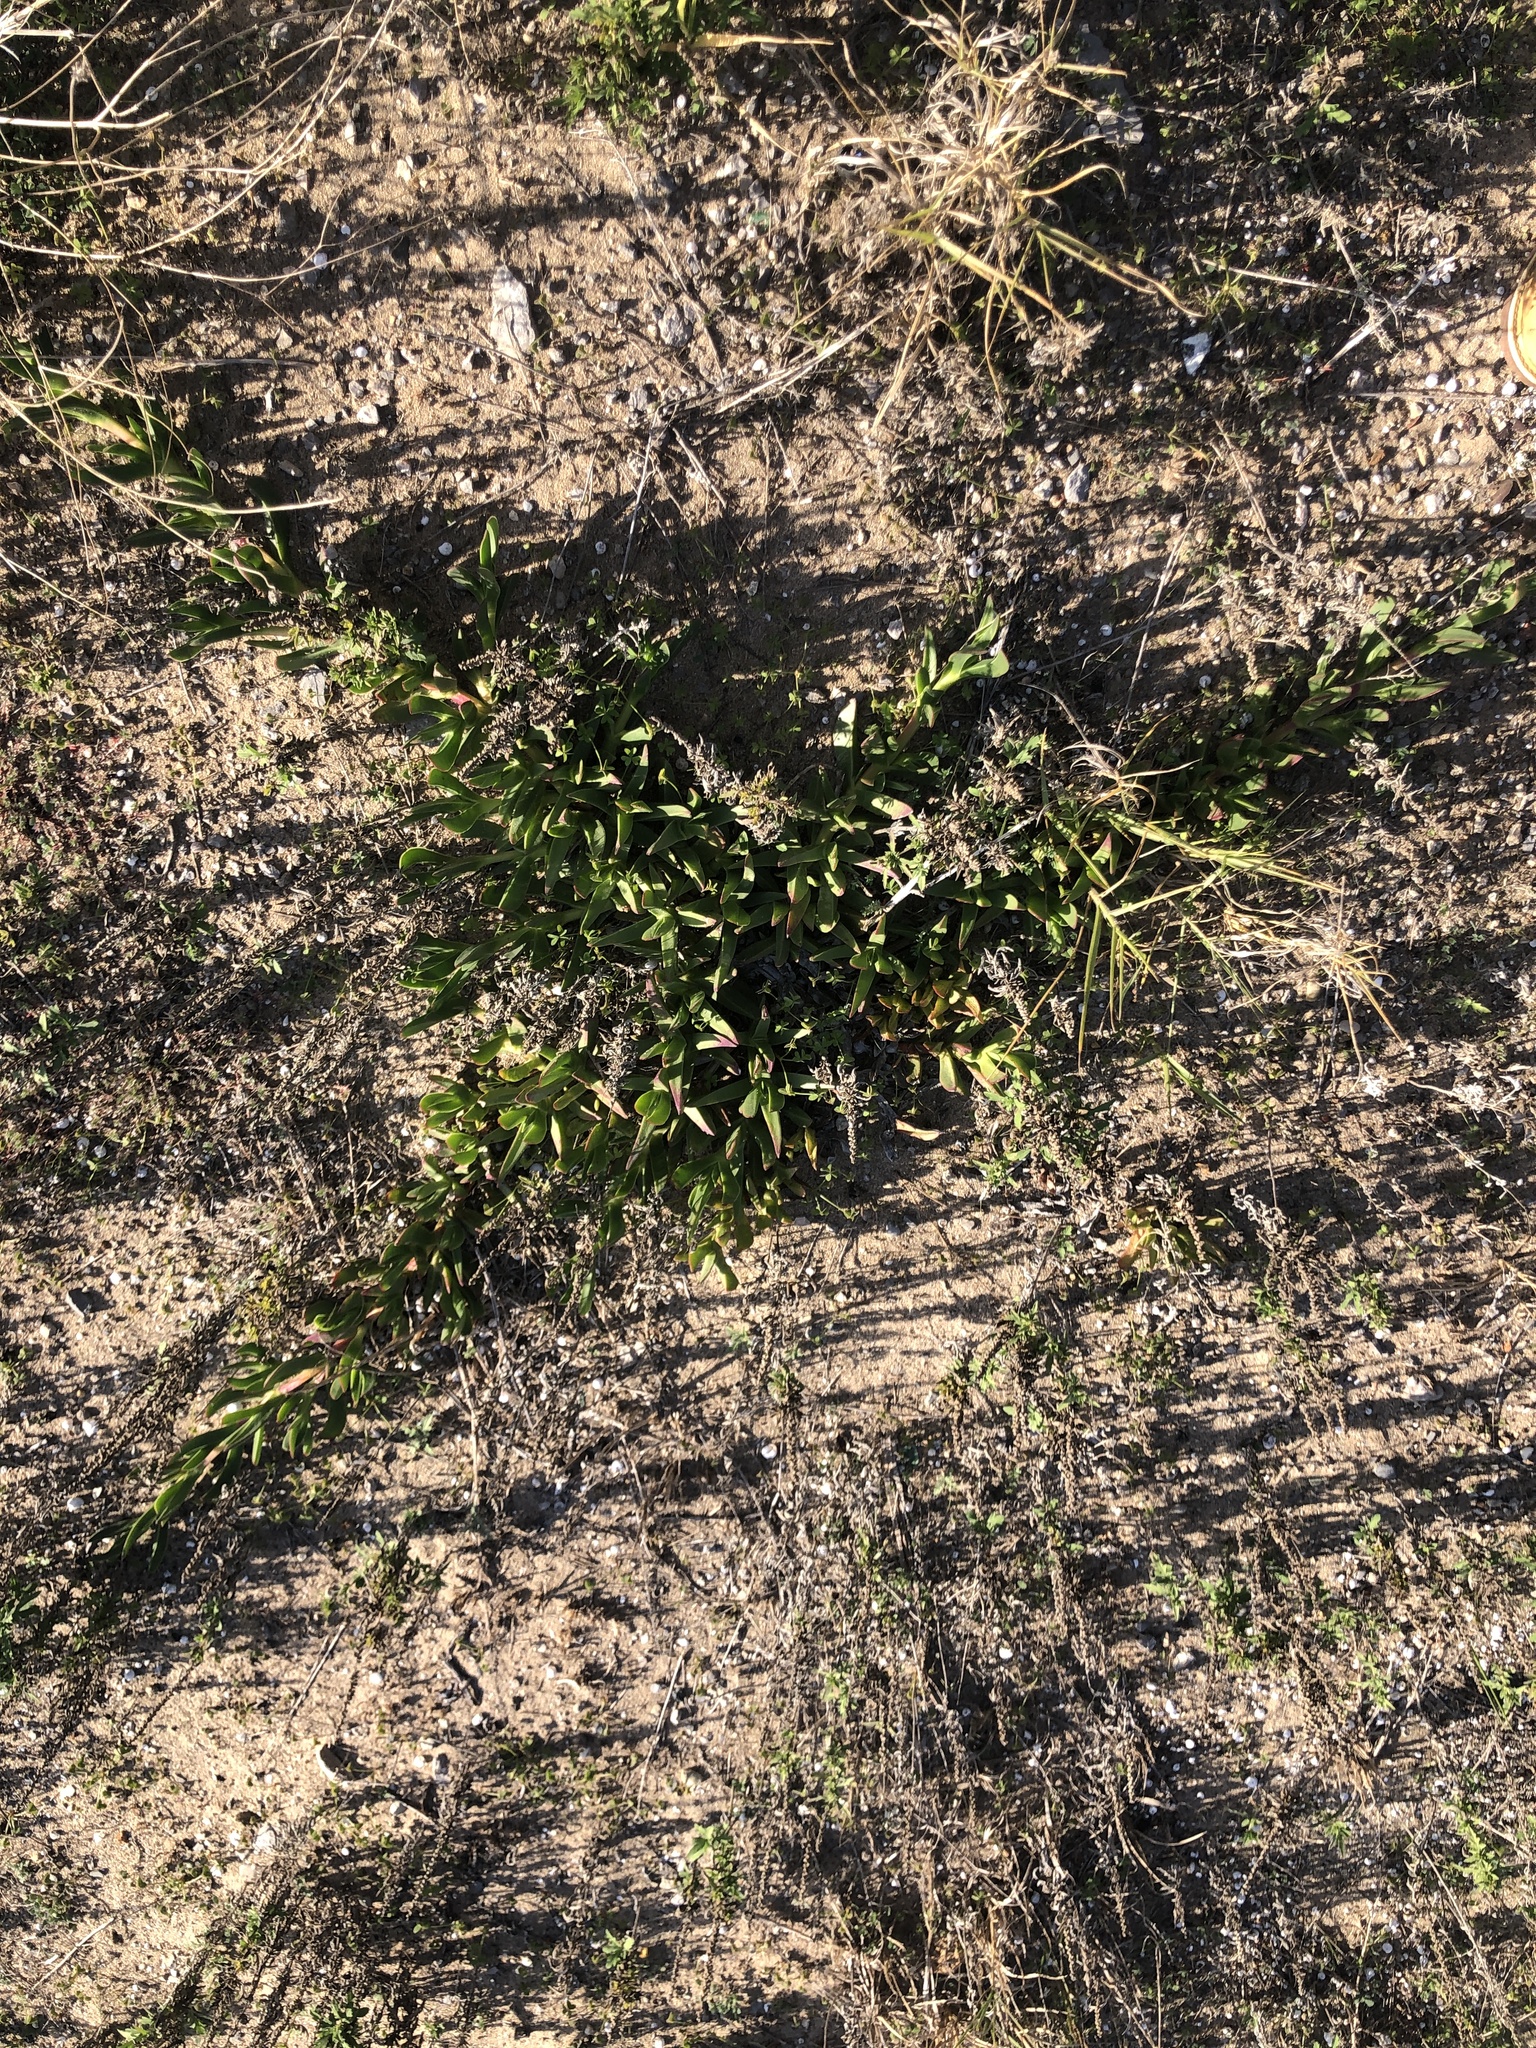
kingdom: Plantae
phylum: Tracheophyta
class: Magnoliopsida
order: Caryophyllales
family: Aizoaceae
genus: Carpobrotus
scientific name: Carpobrotus edulis
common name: Hottentot-fig
